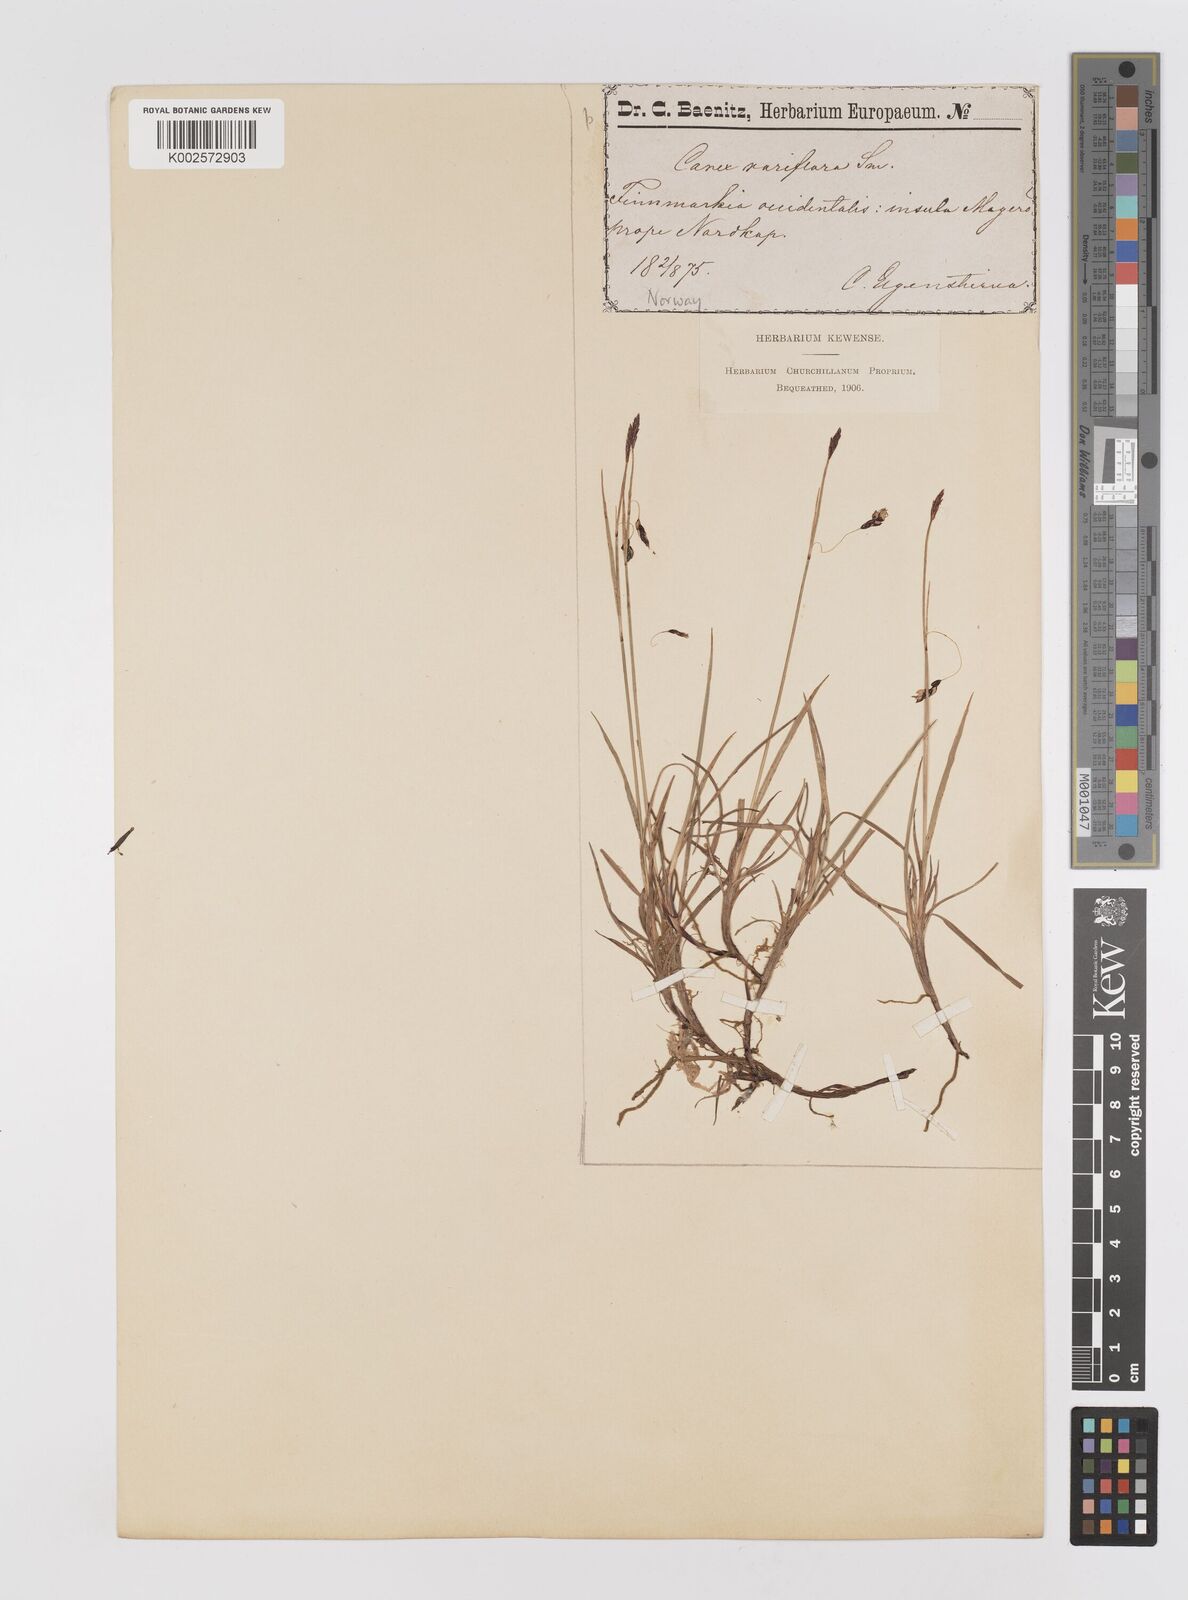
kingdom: Plantae
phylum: Tracheophyta
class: Liliopsida
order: Poales
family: Cyperaceae
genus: Carex
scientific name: Carex rariflora
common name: Loose-flowered alpine sedge
